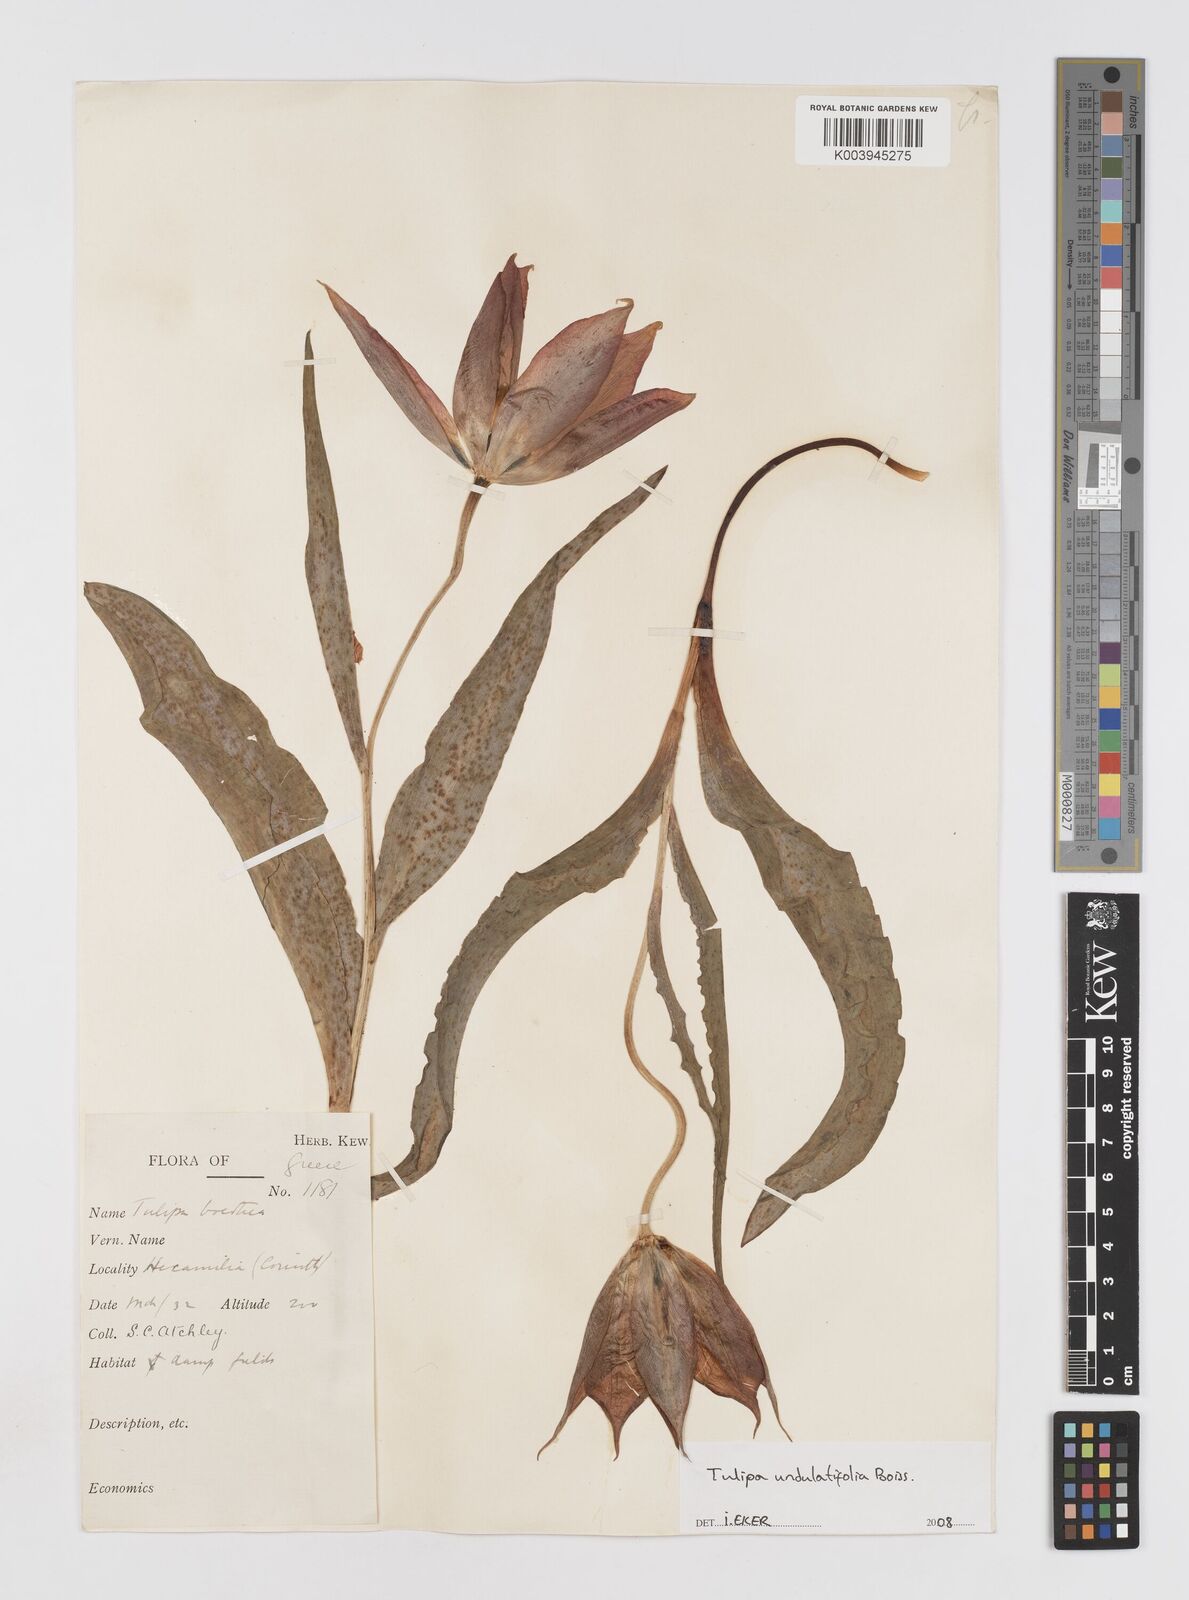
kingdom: Plantae
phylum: Tracheophyta
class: Liliopsida
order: Liliales
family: Liliaceae
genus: Tulipa
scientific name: Tulipa undulatifolia
